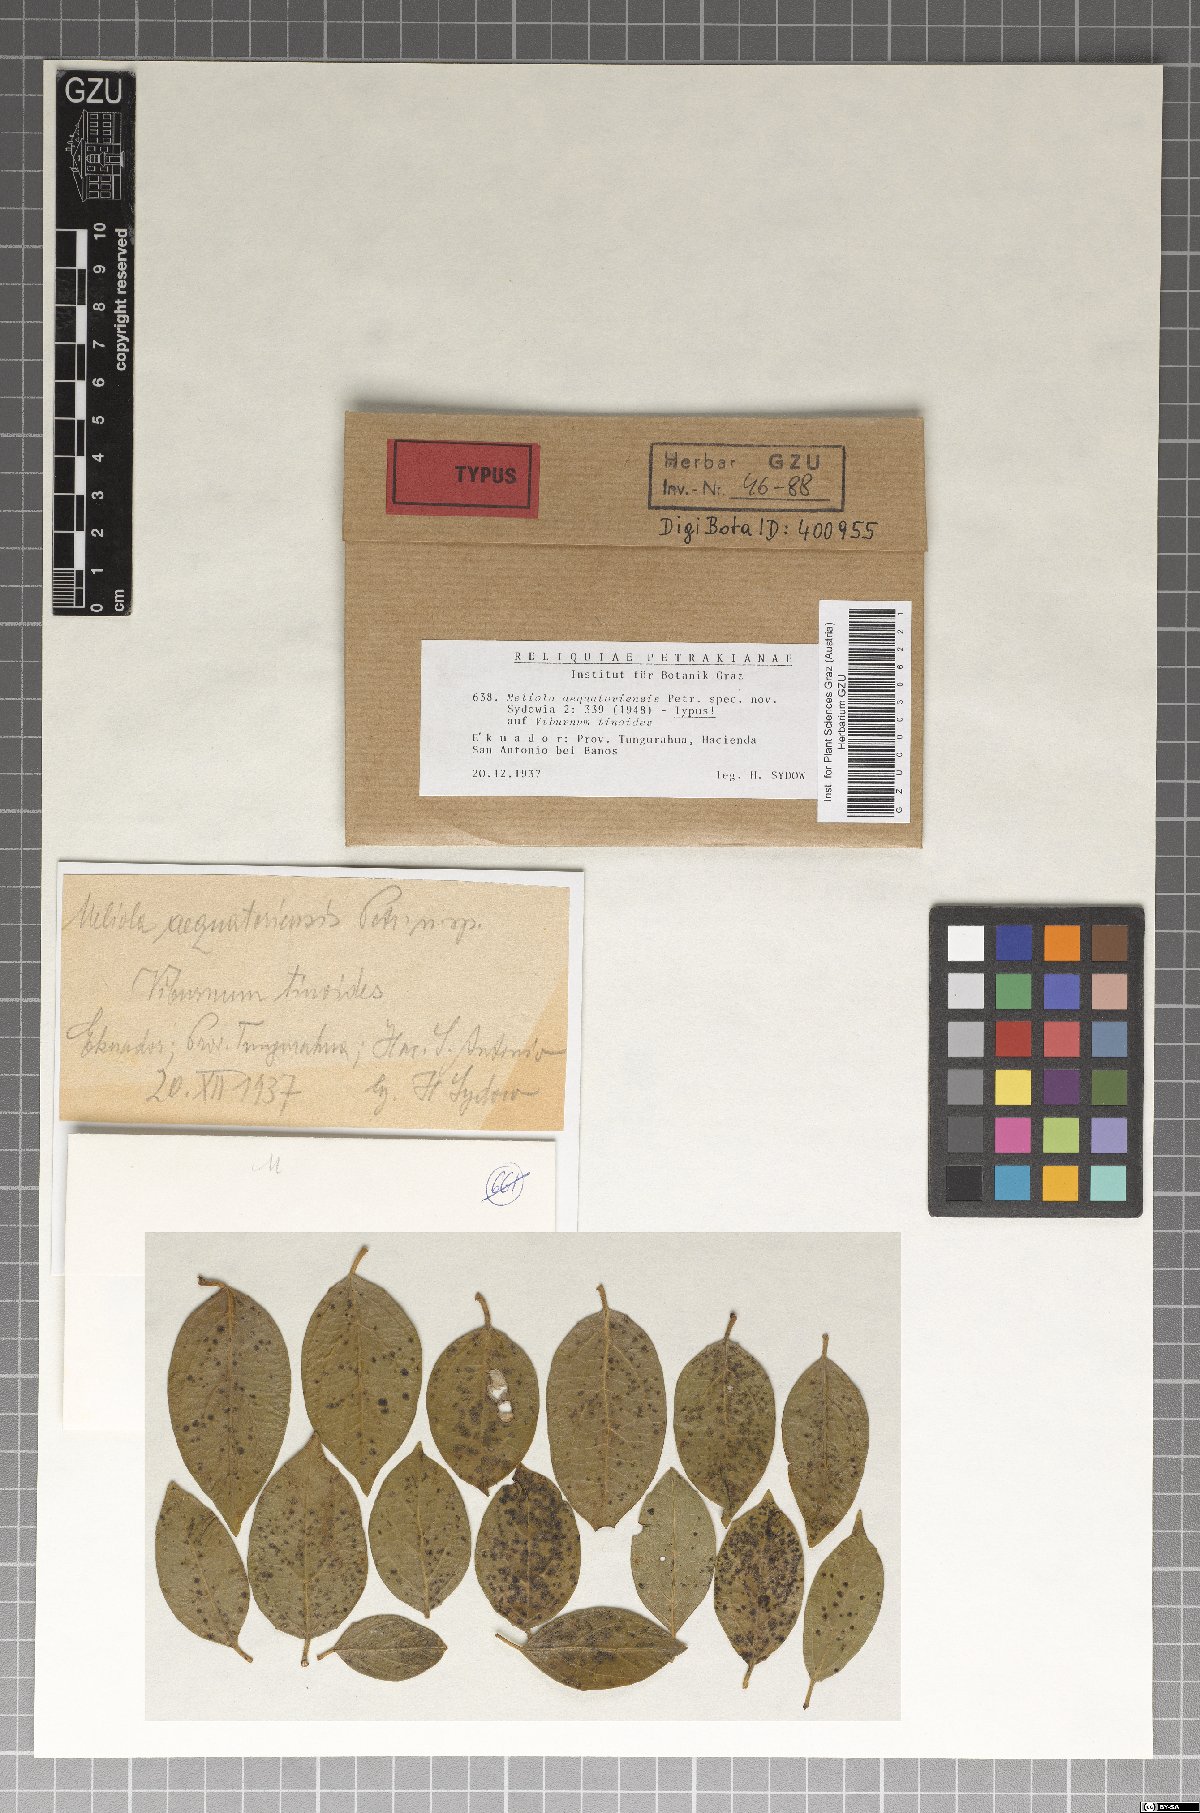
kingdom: Fungi
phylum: Ascomycota
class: Sordariomycetes
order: Meliolales
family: Meliolaceae
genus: Meliola
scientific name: Meliola aequatoriensis
